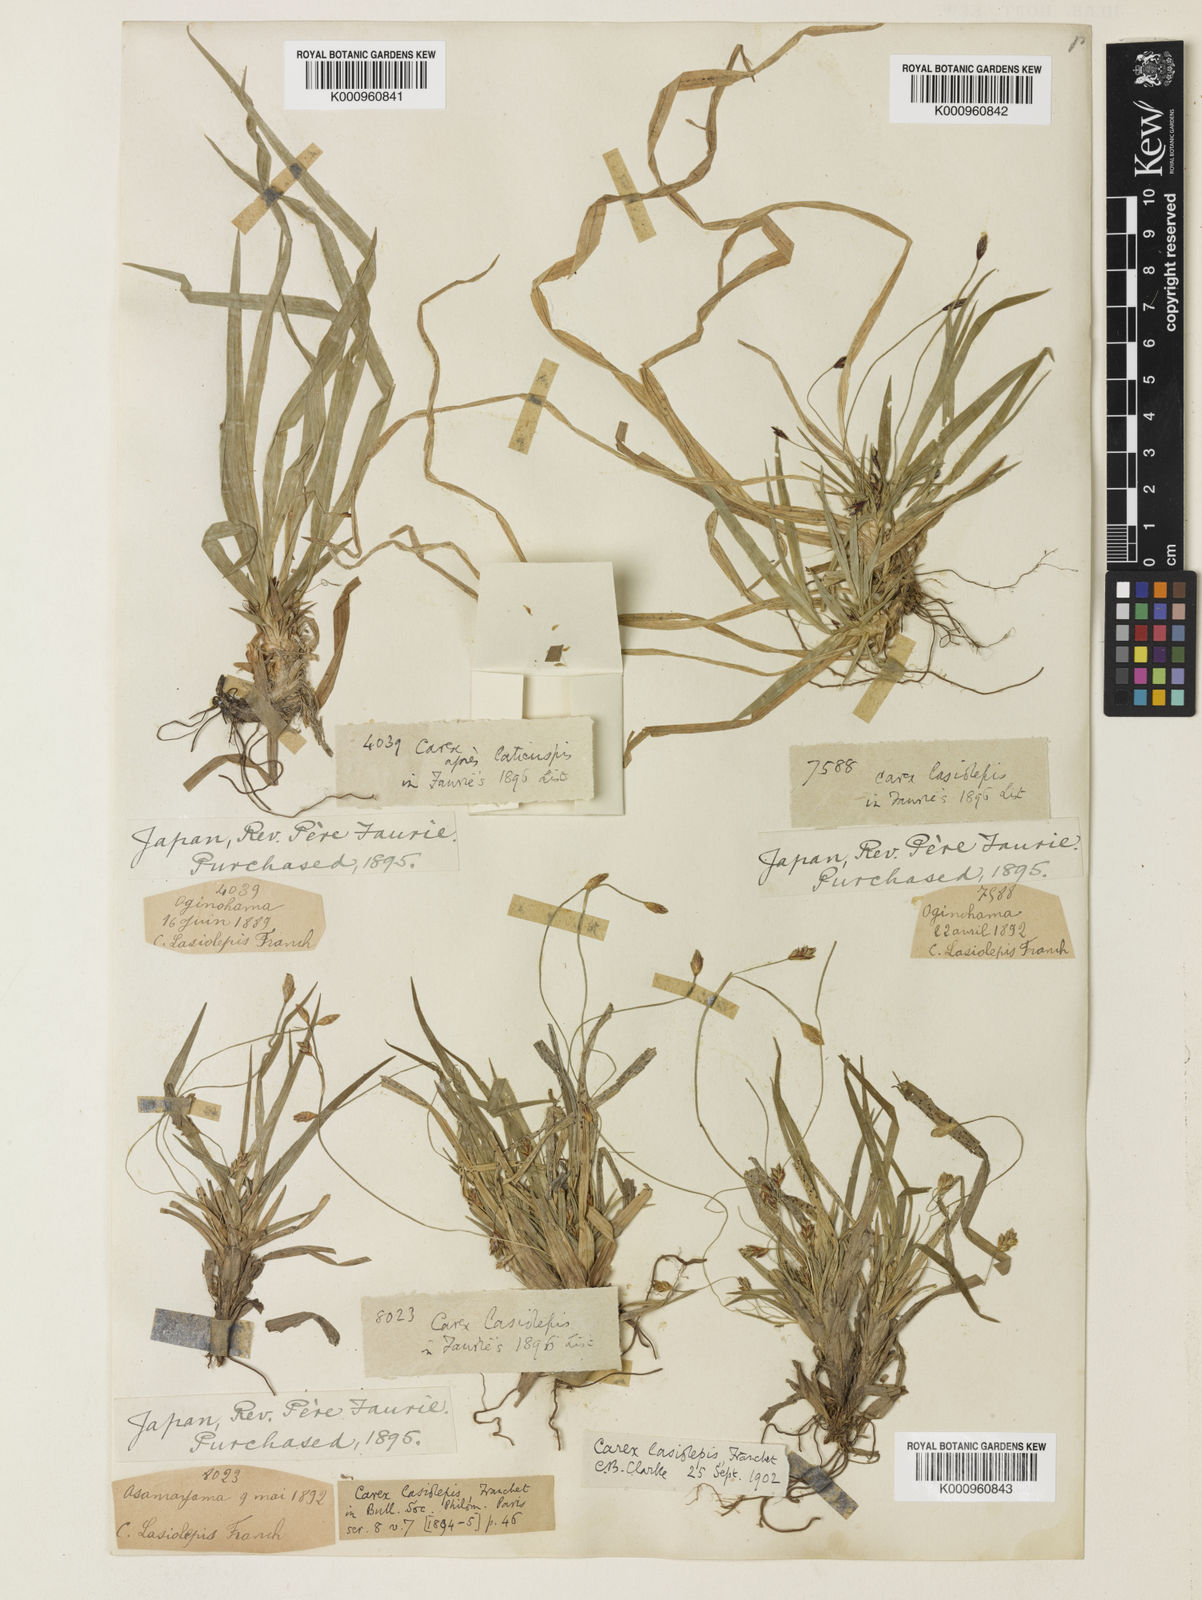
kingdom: Plantae
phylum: Tracheophyta
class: Liliopsida
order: Poales
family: Cyperaceae
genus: Carex
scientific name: Carex lasiolepis
